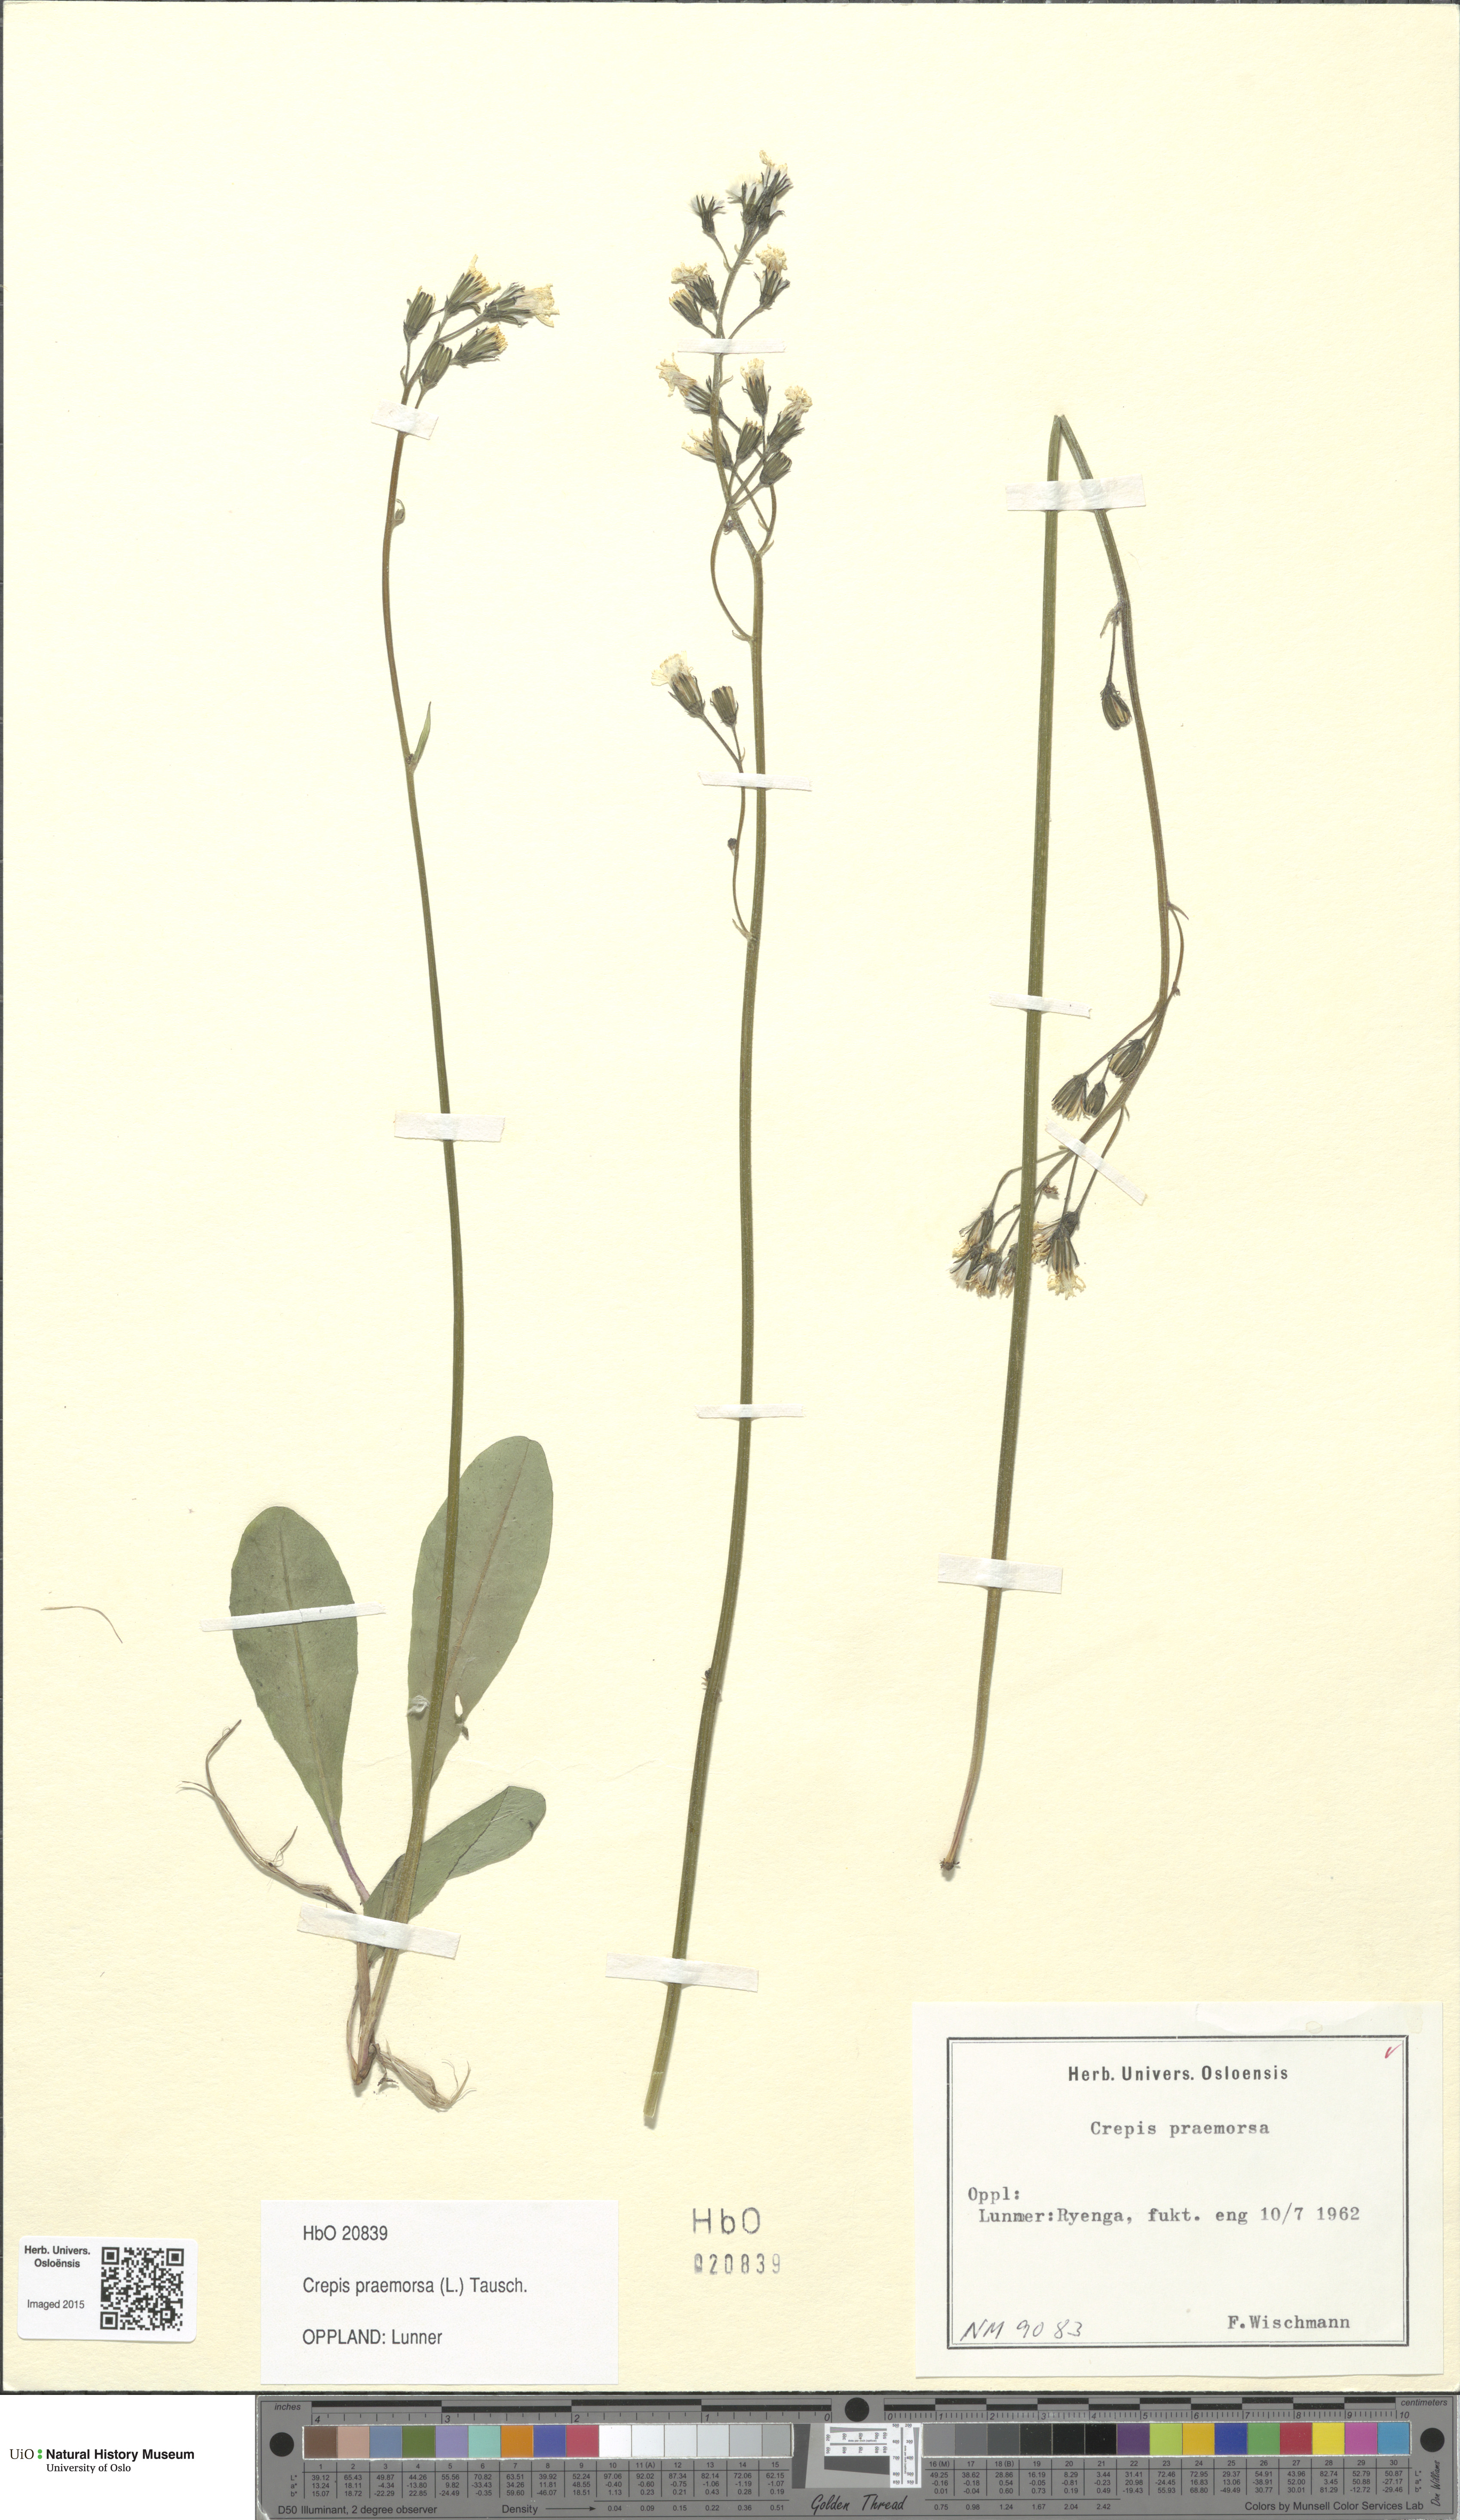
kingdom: Plantae
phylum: Tracheophyta
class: Magnoliopsida
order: Asterales
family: Asteraceae
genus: Crepis
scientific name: Crepis praemorsa
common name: Leafless hawk's-beard
